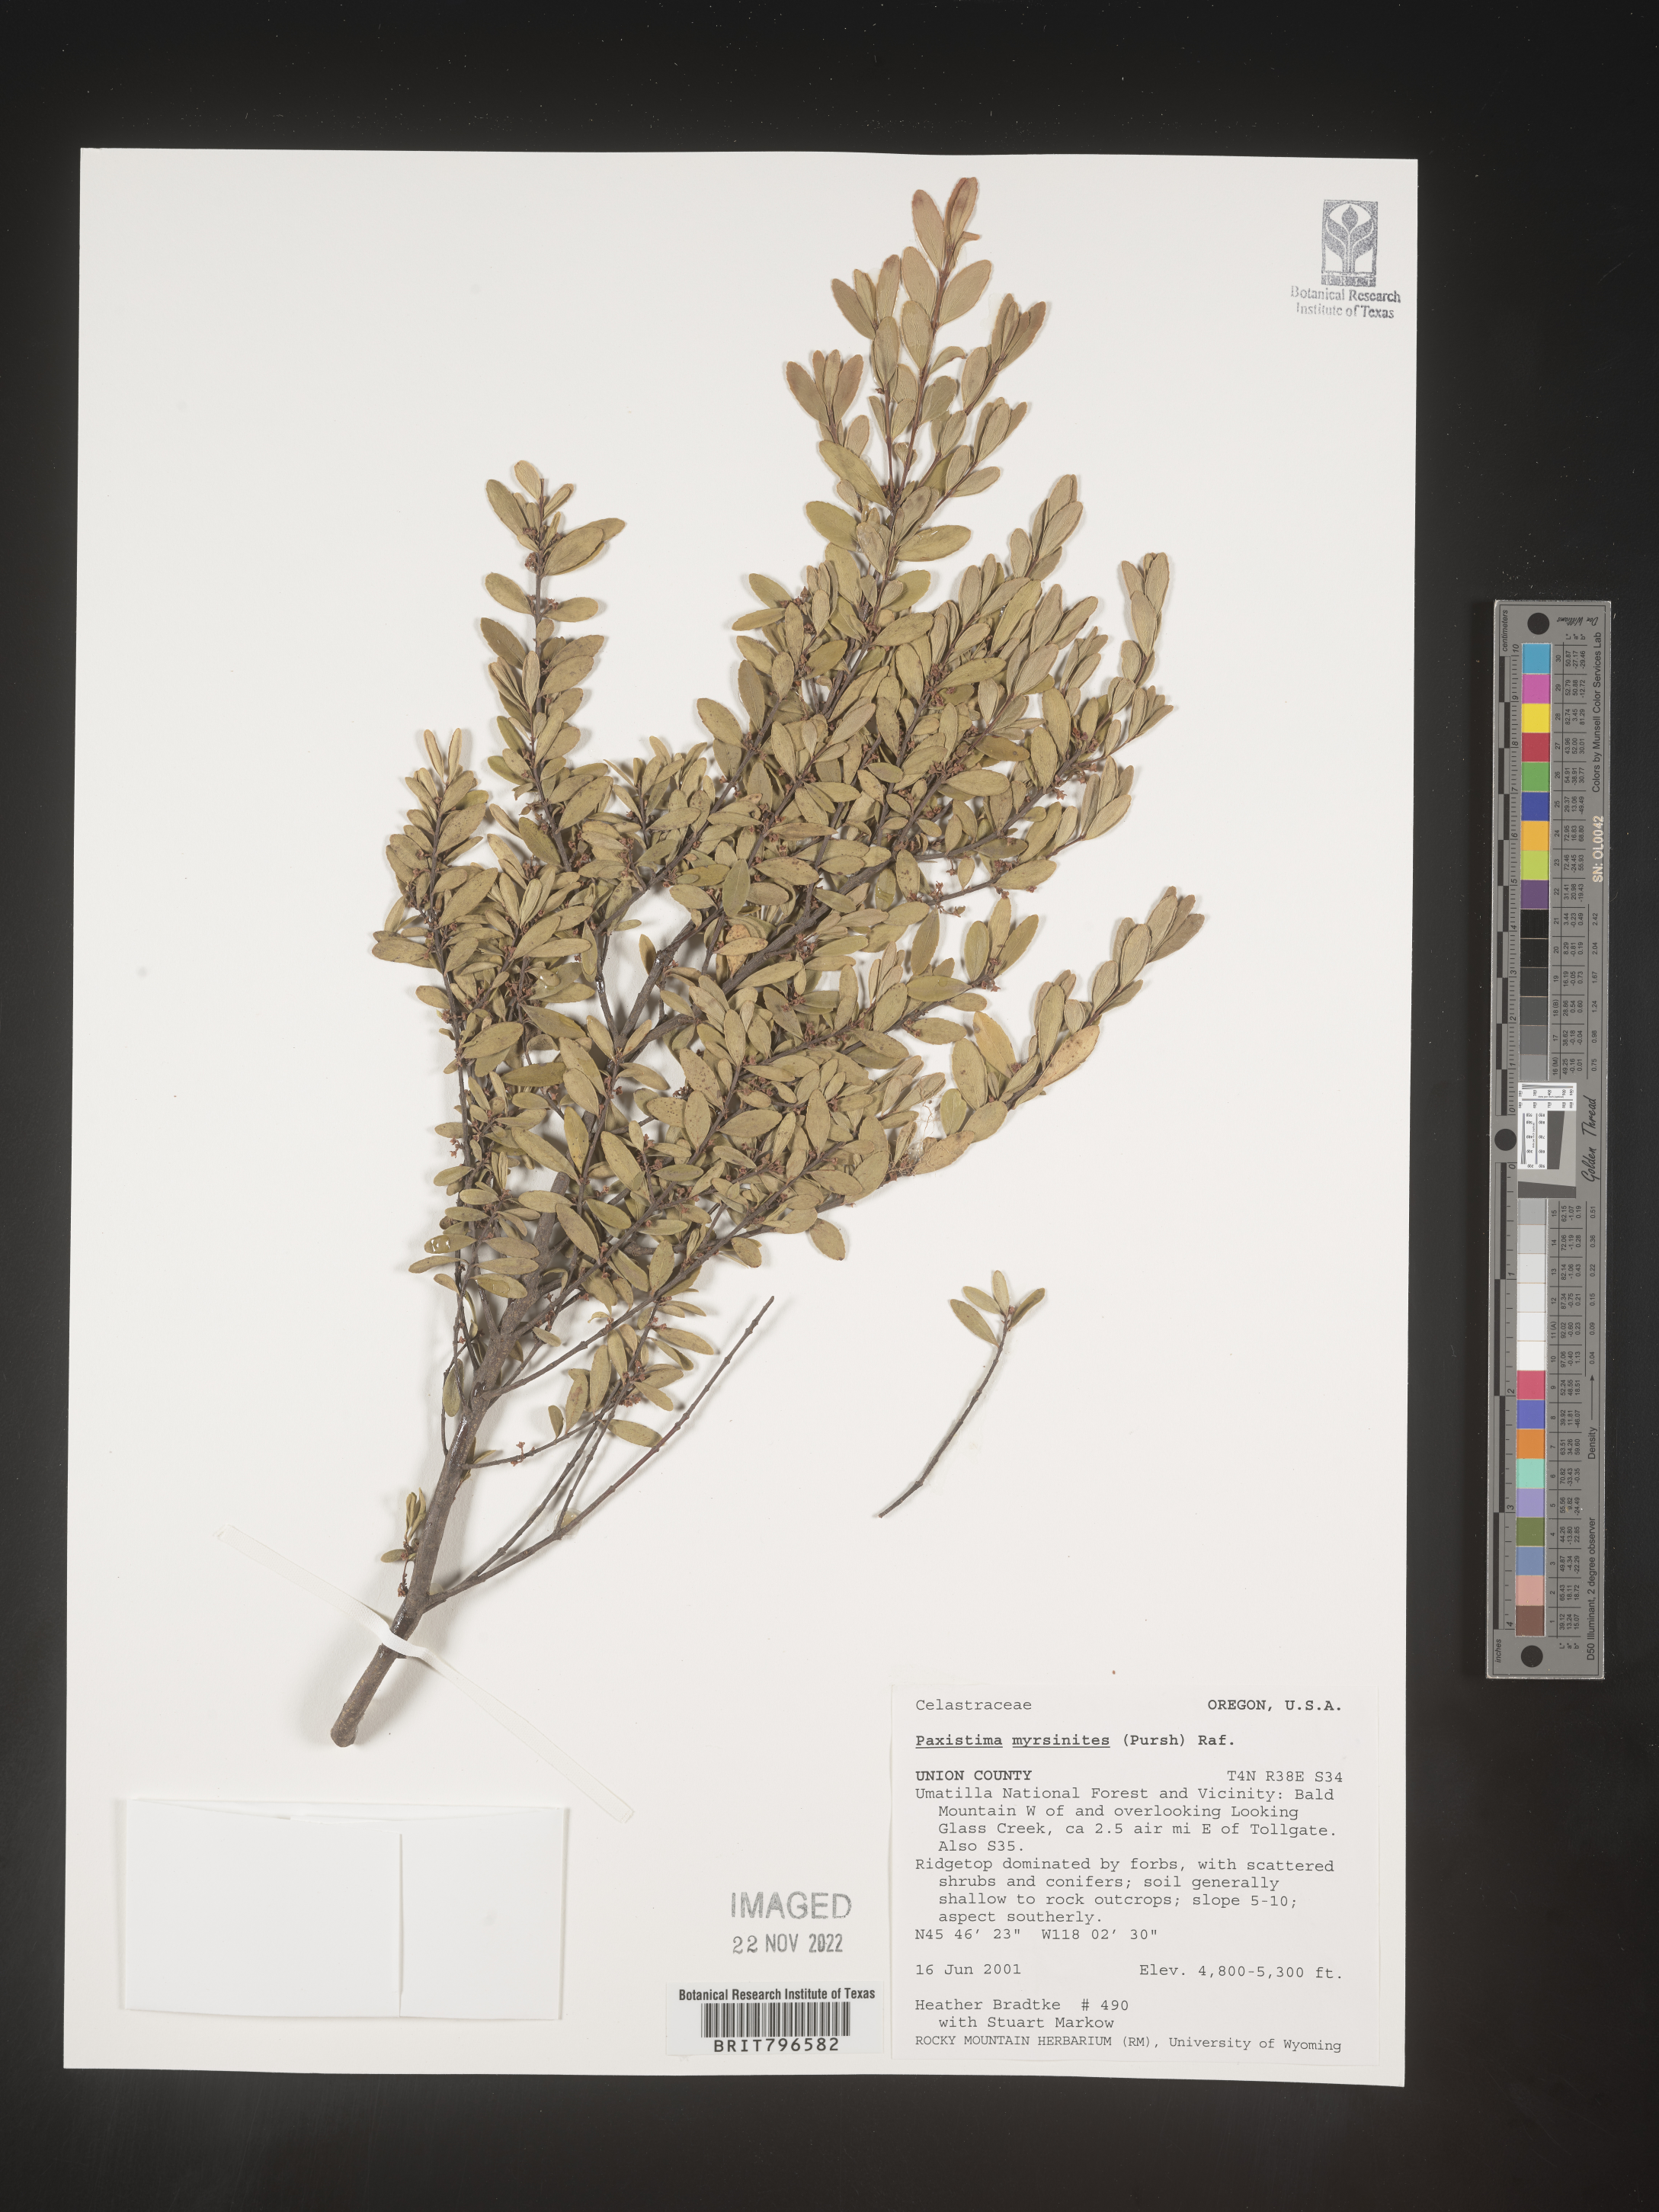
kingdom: Plantae
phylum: Tracheophyta
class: Magnoliopsida
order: Celastrales
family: Celastraceae
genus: Paxistima
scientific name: Paxistima myrsinites
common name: Mountain-lover
